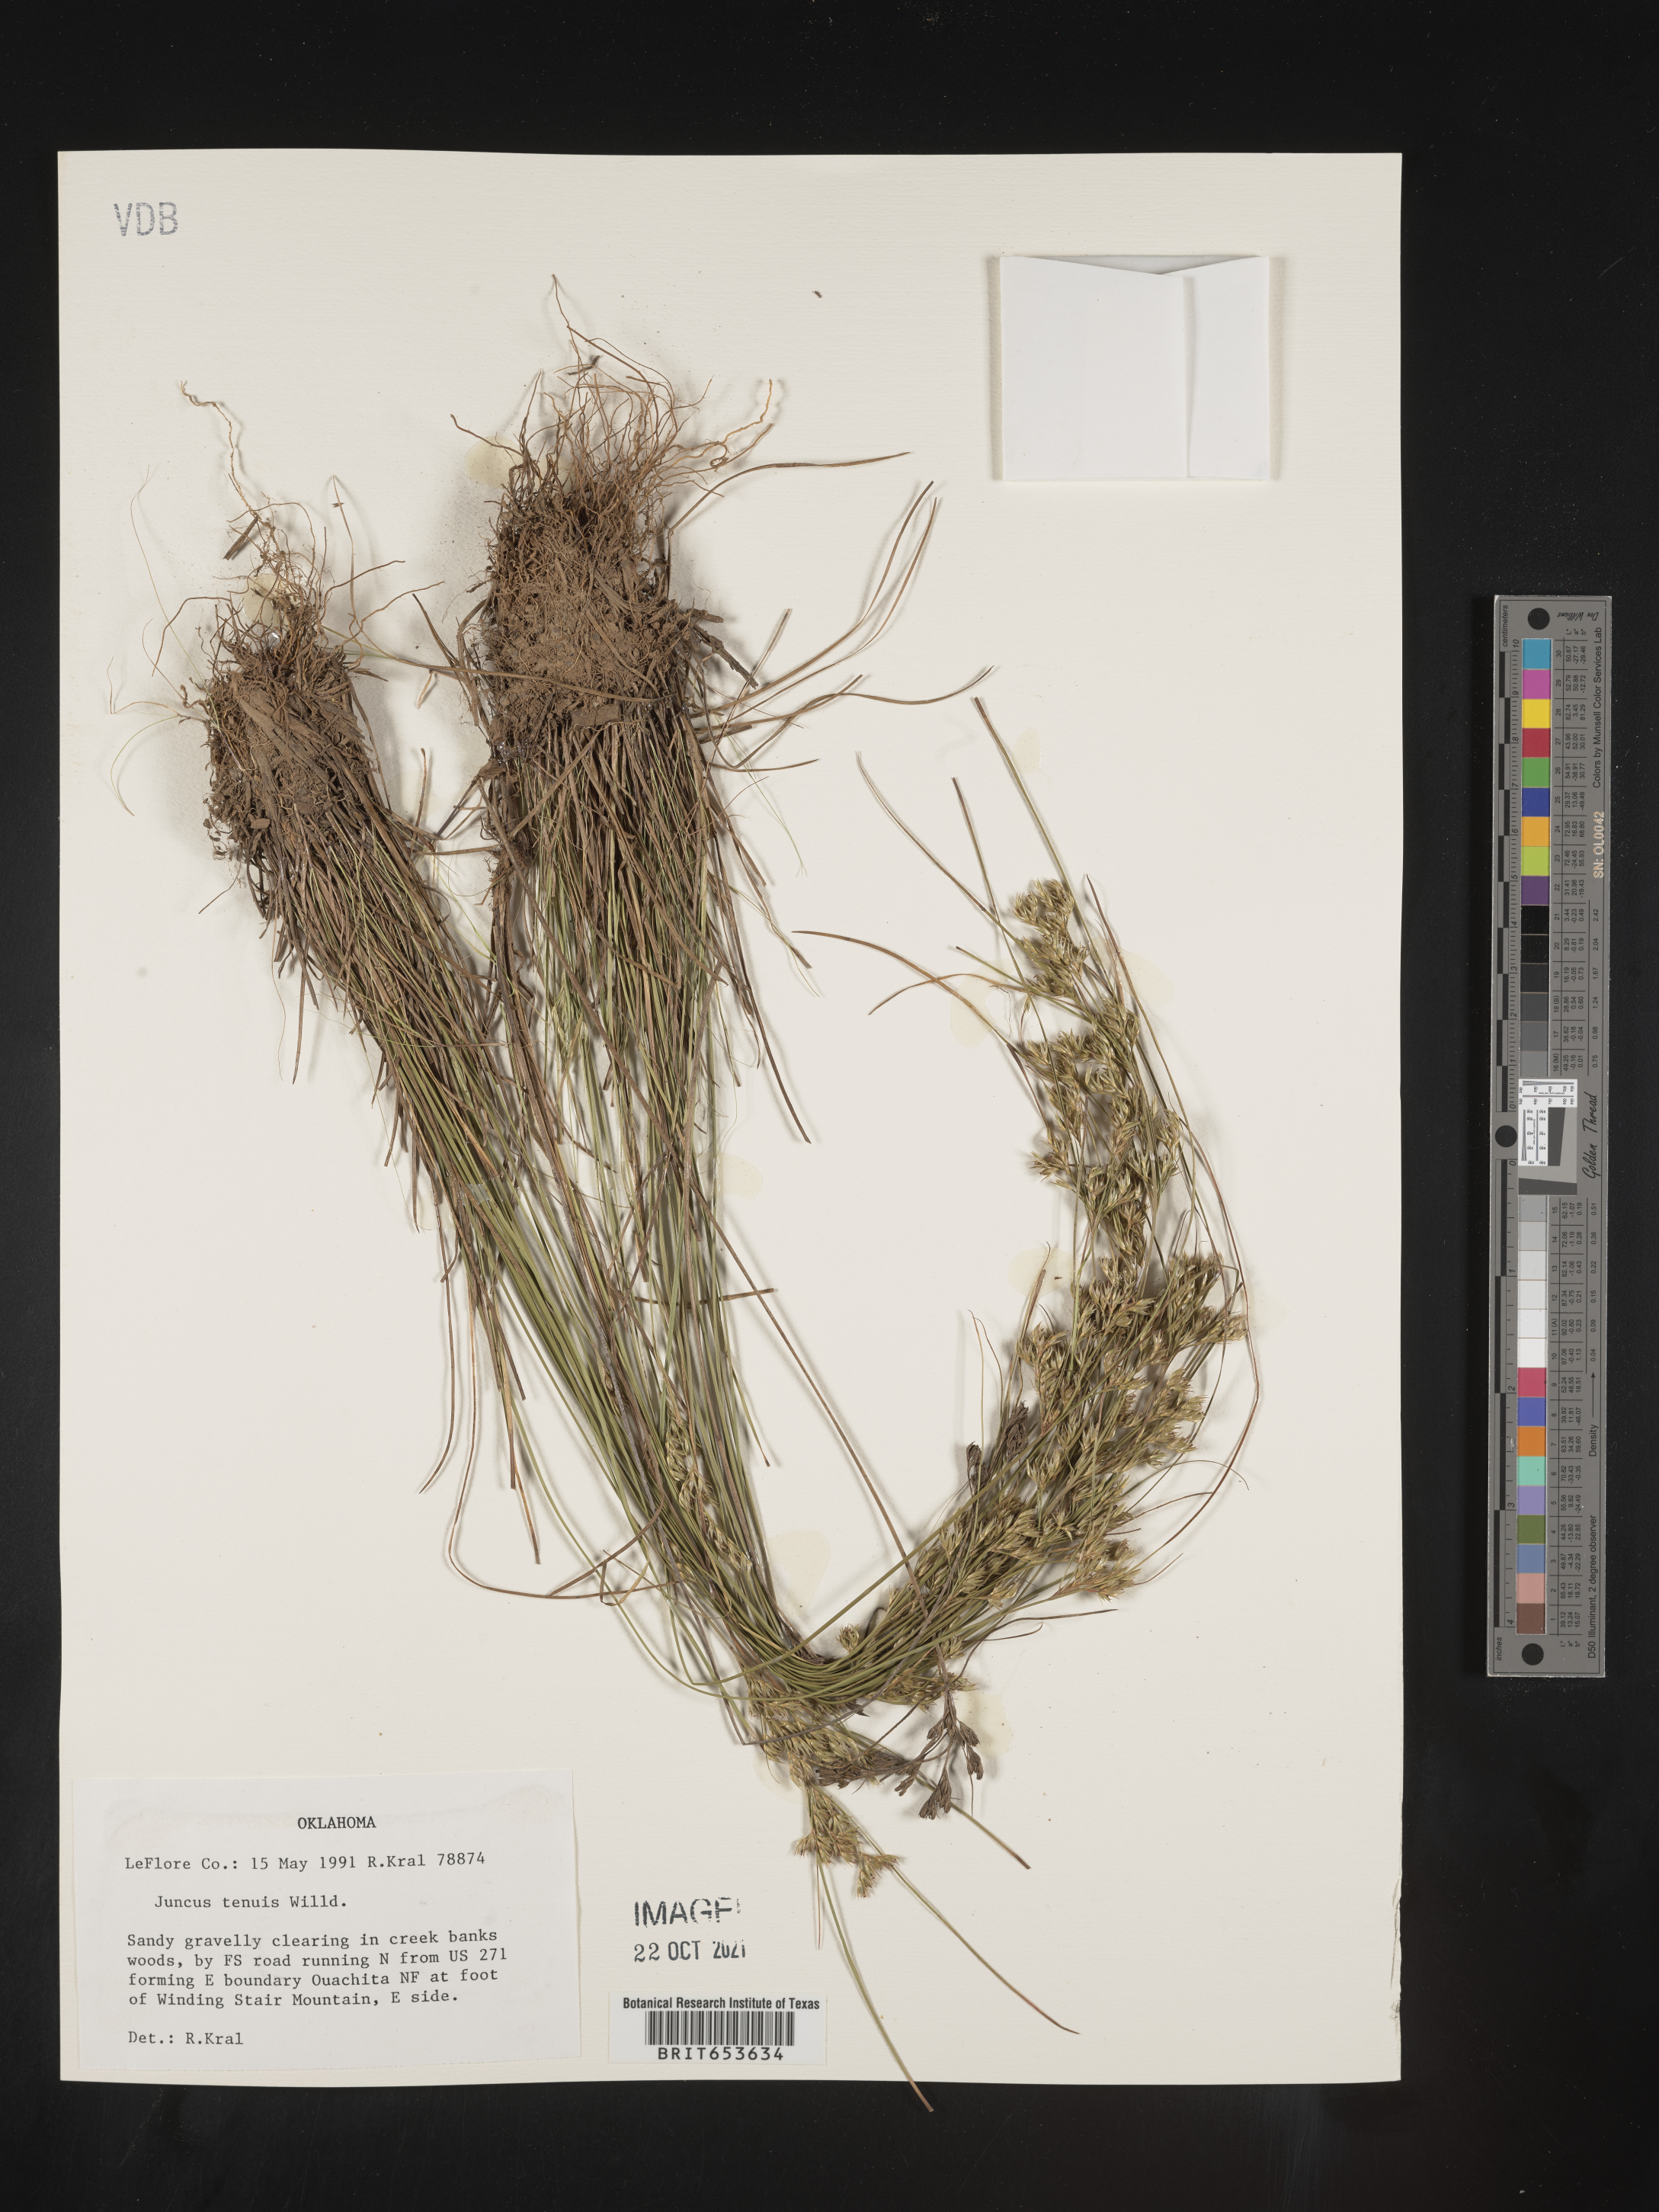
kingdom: Plantae
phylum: Tracheophyta
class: Liliopsida
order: Poales
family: Juncaceae
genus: Juncus
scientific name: Juncus tenuis
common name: Slender rush
